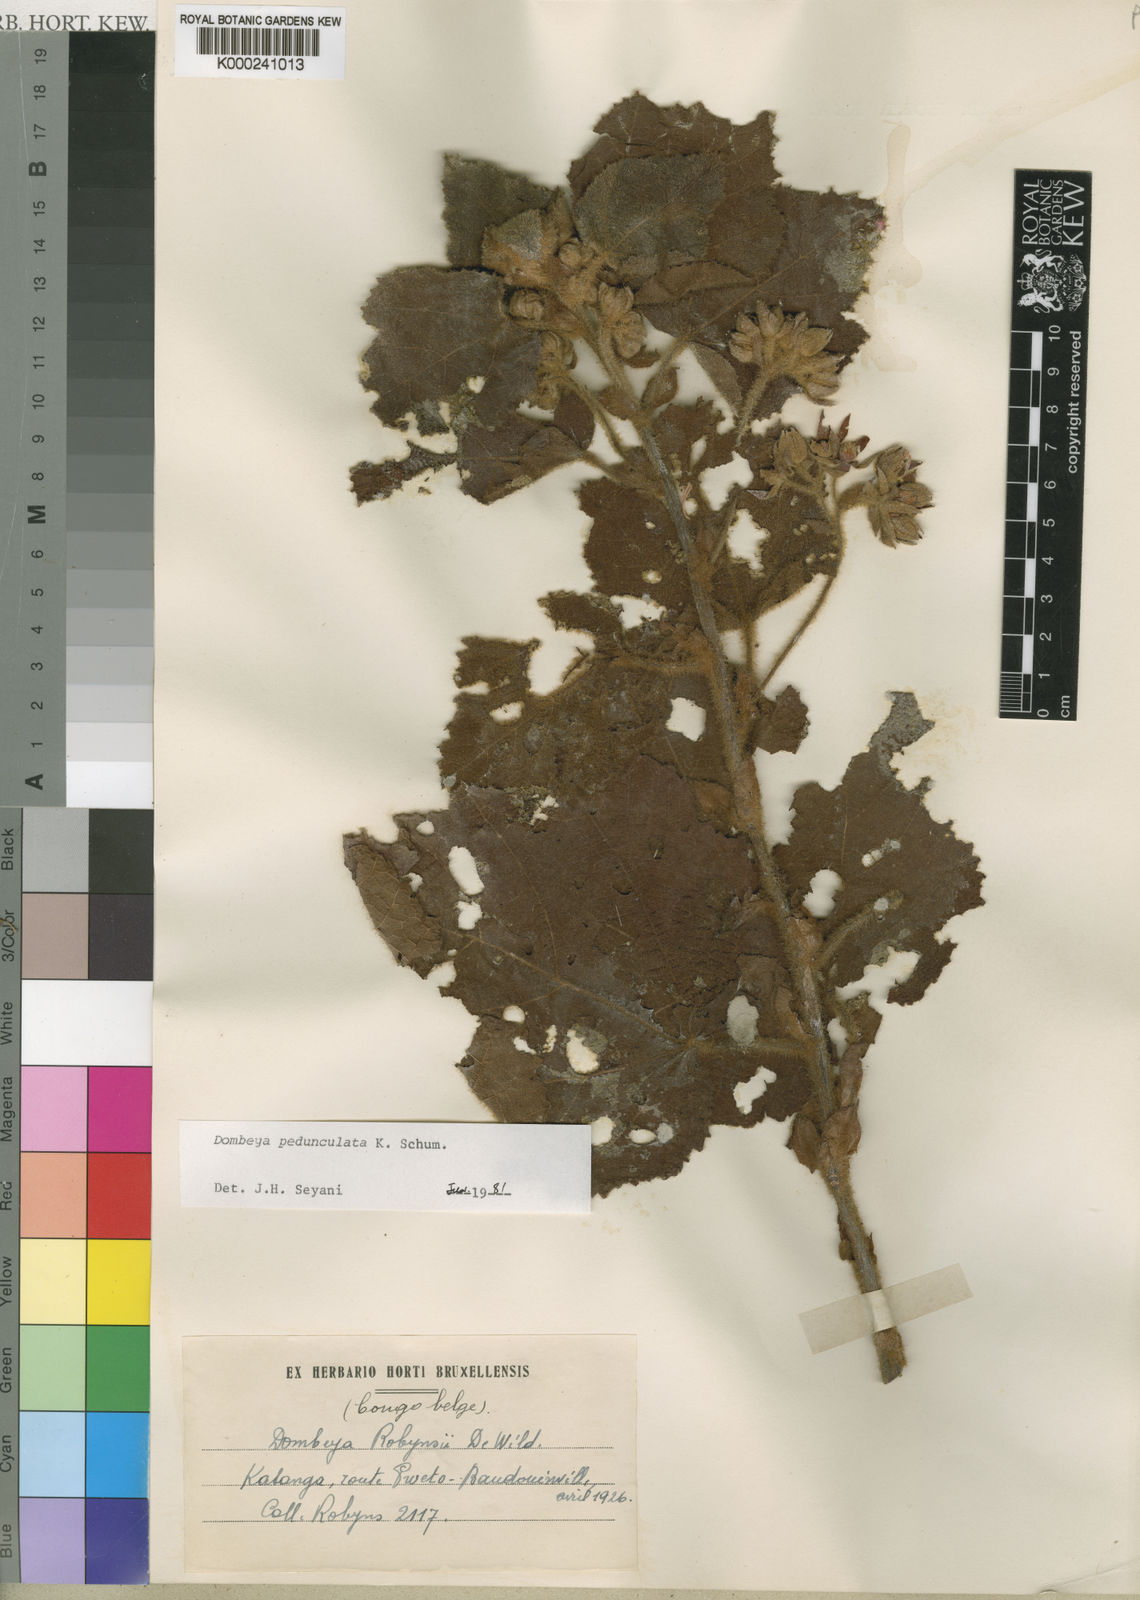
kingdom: Plantae
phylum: Tracheophyta
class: Magnoliopsida
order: Malvales
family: Malvaceae
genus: Dombeya
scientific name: Dombeya buettneri
